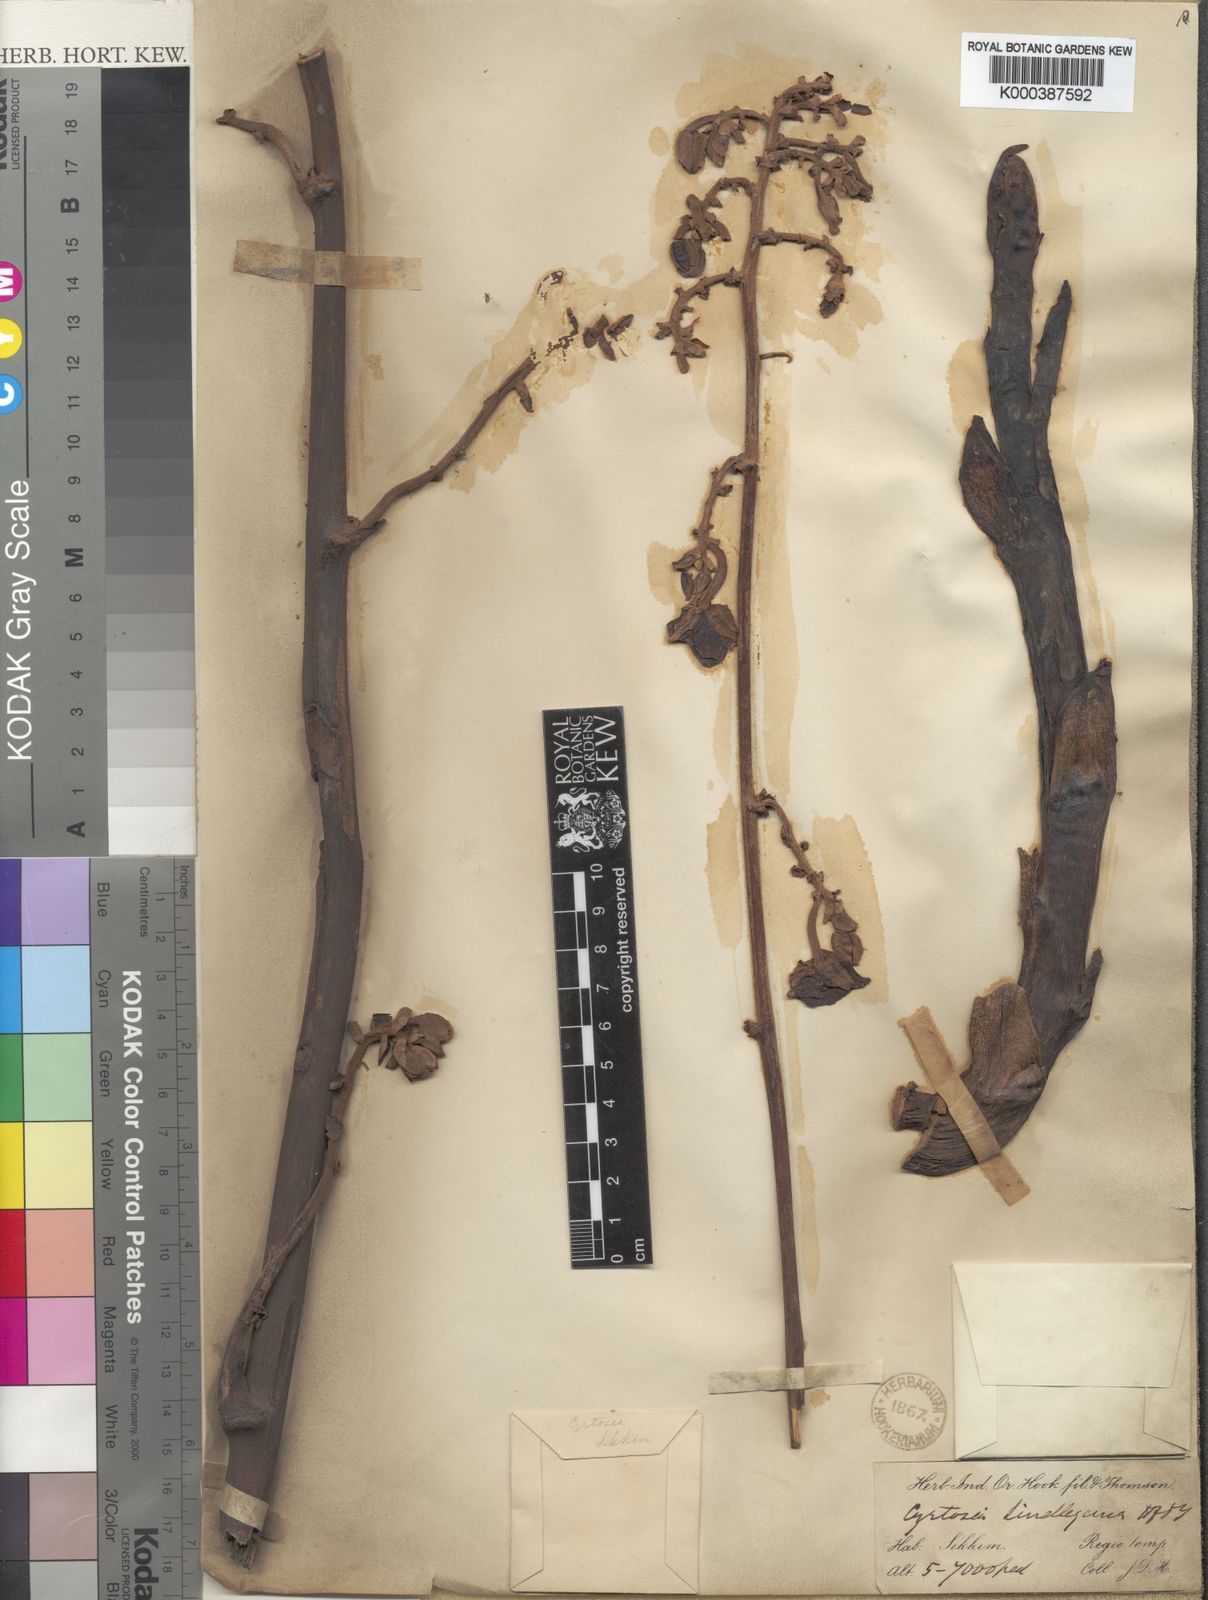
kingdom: Plantae
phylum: Tracheophyta
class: Liliopsida
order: Asparagales
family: Orchidaceae
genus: Cyrtosia
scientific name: Cyrtosia lindleyana
